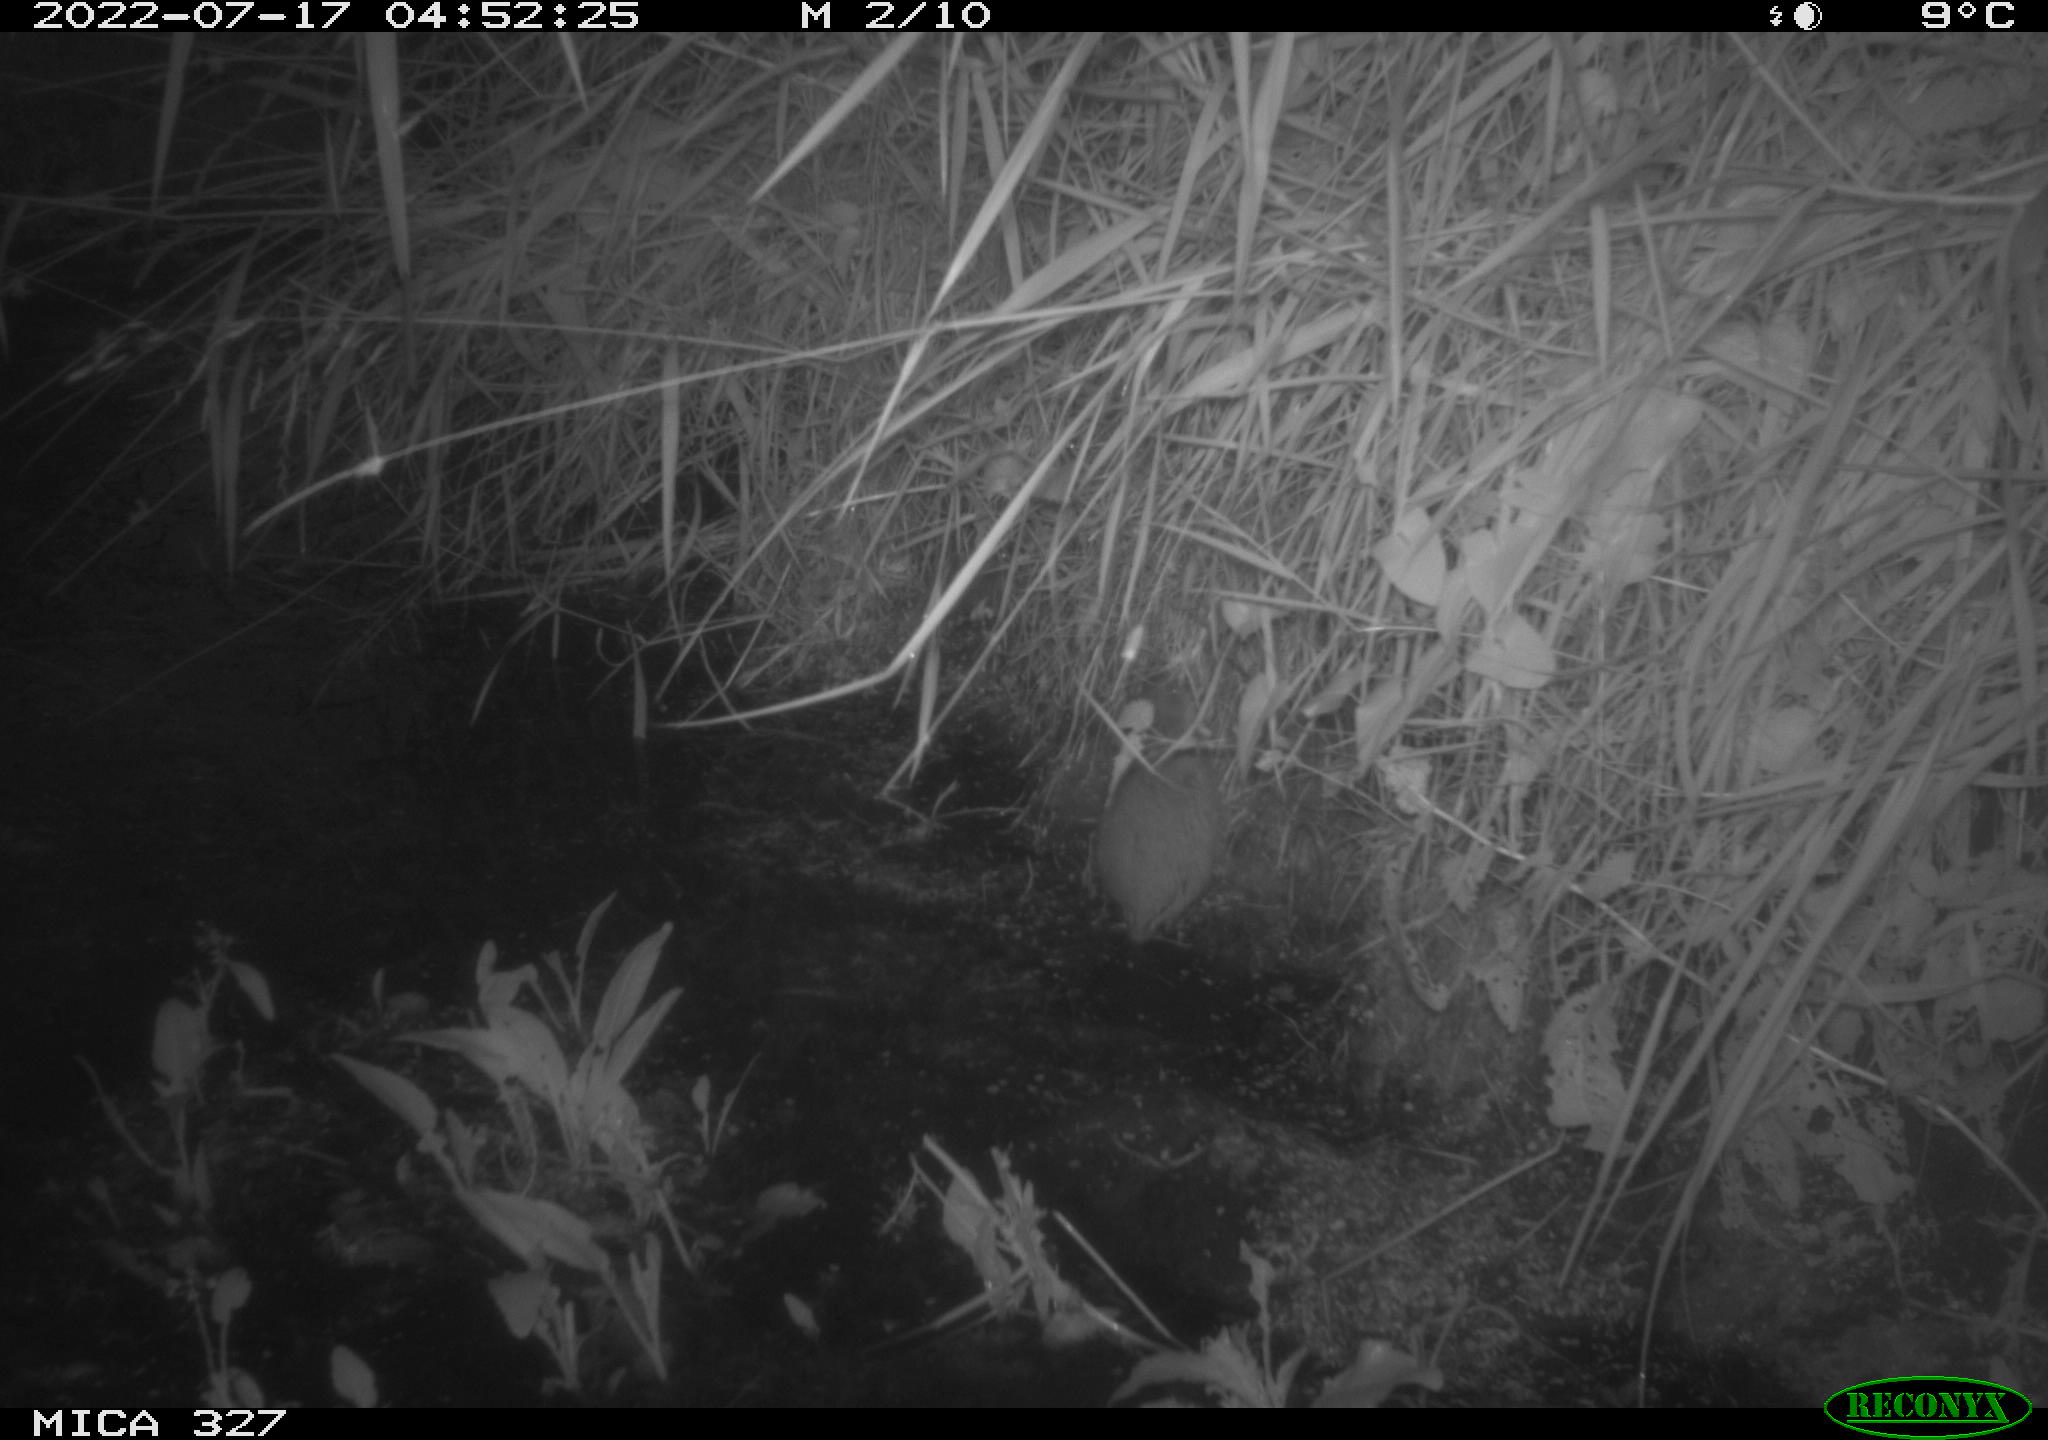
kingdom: Animalia
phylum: Chordata
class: Mammalia
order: Rodentia
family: Cricetidae
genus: Ondatra
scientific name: Ondatra zibethicus
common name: Muskrat
